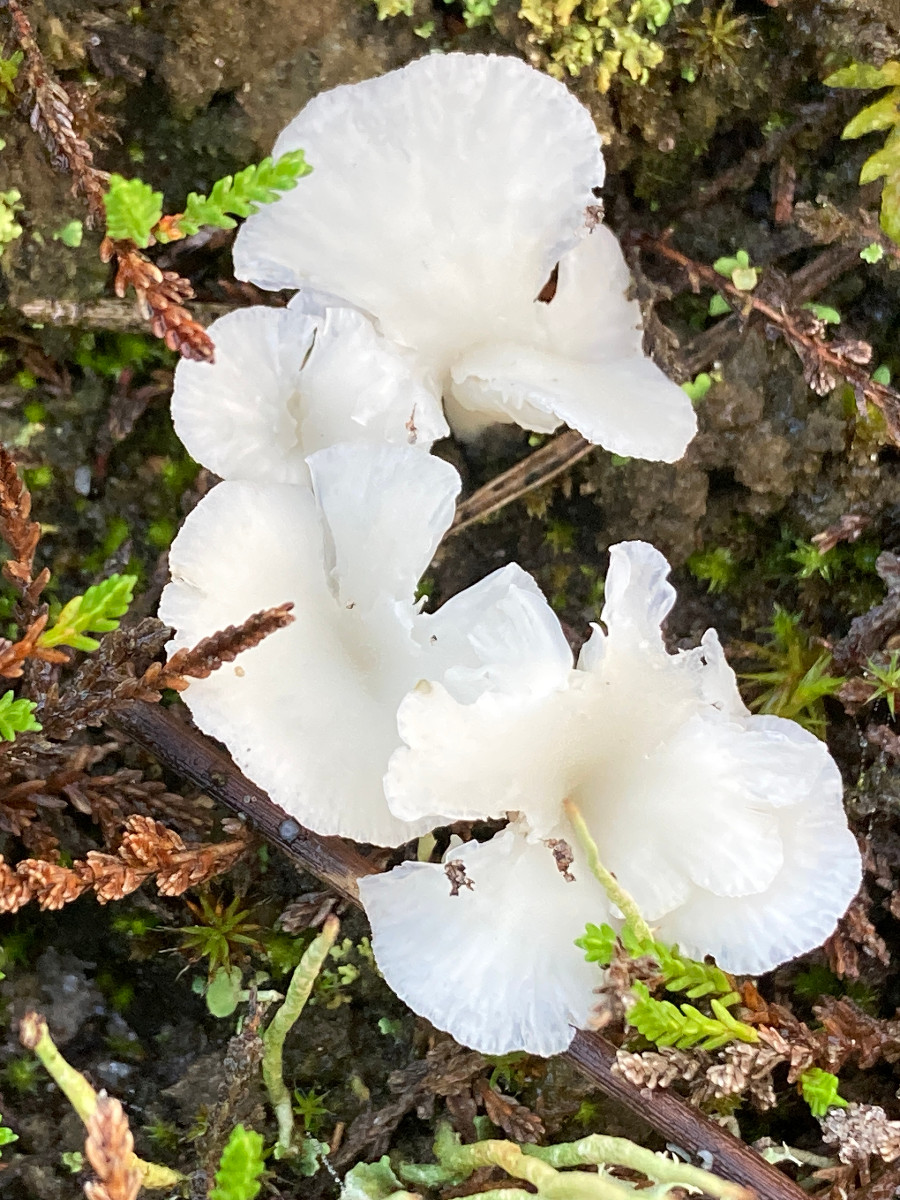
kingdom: Fungi
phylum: Basidiomycota
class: Agaricomycetes
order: Agaricales
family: Tricholomataceae
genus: Omphalina
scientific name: Omphalina mutila
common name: hvid navlehat
